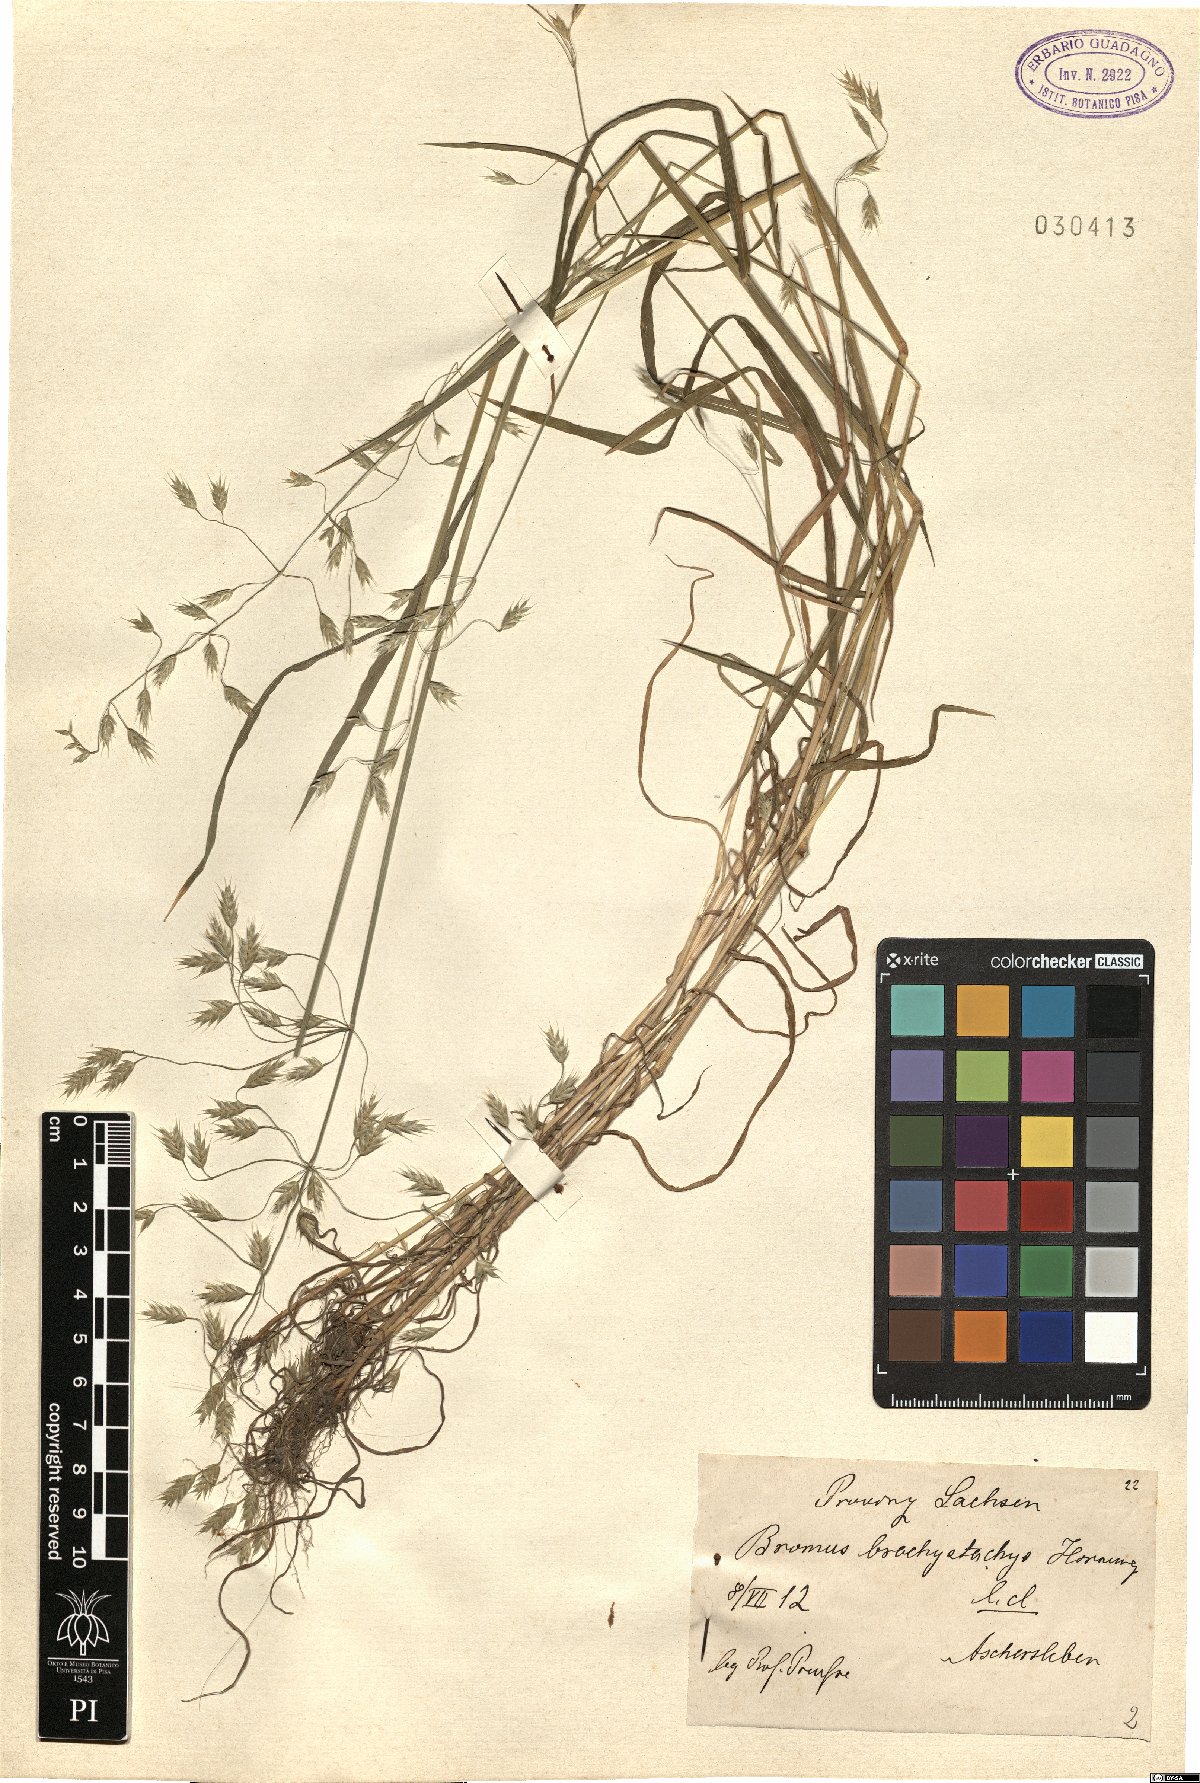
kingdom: Plantae
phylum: Tracheophyta
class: Liliopsida
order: Poales
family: Poaceae
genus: Bromus
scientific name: Bromus brachystachys
